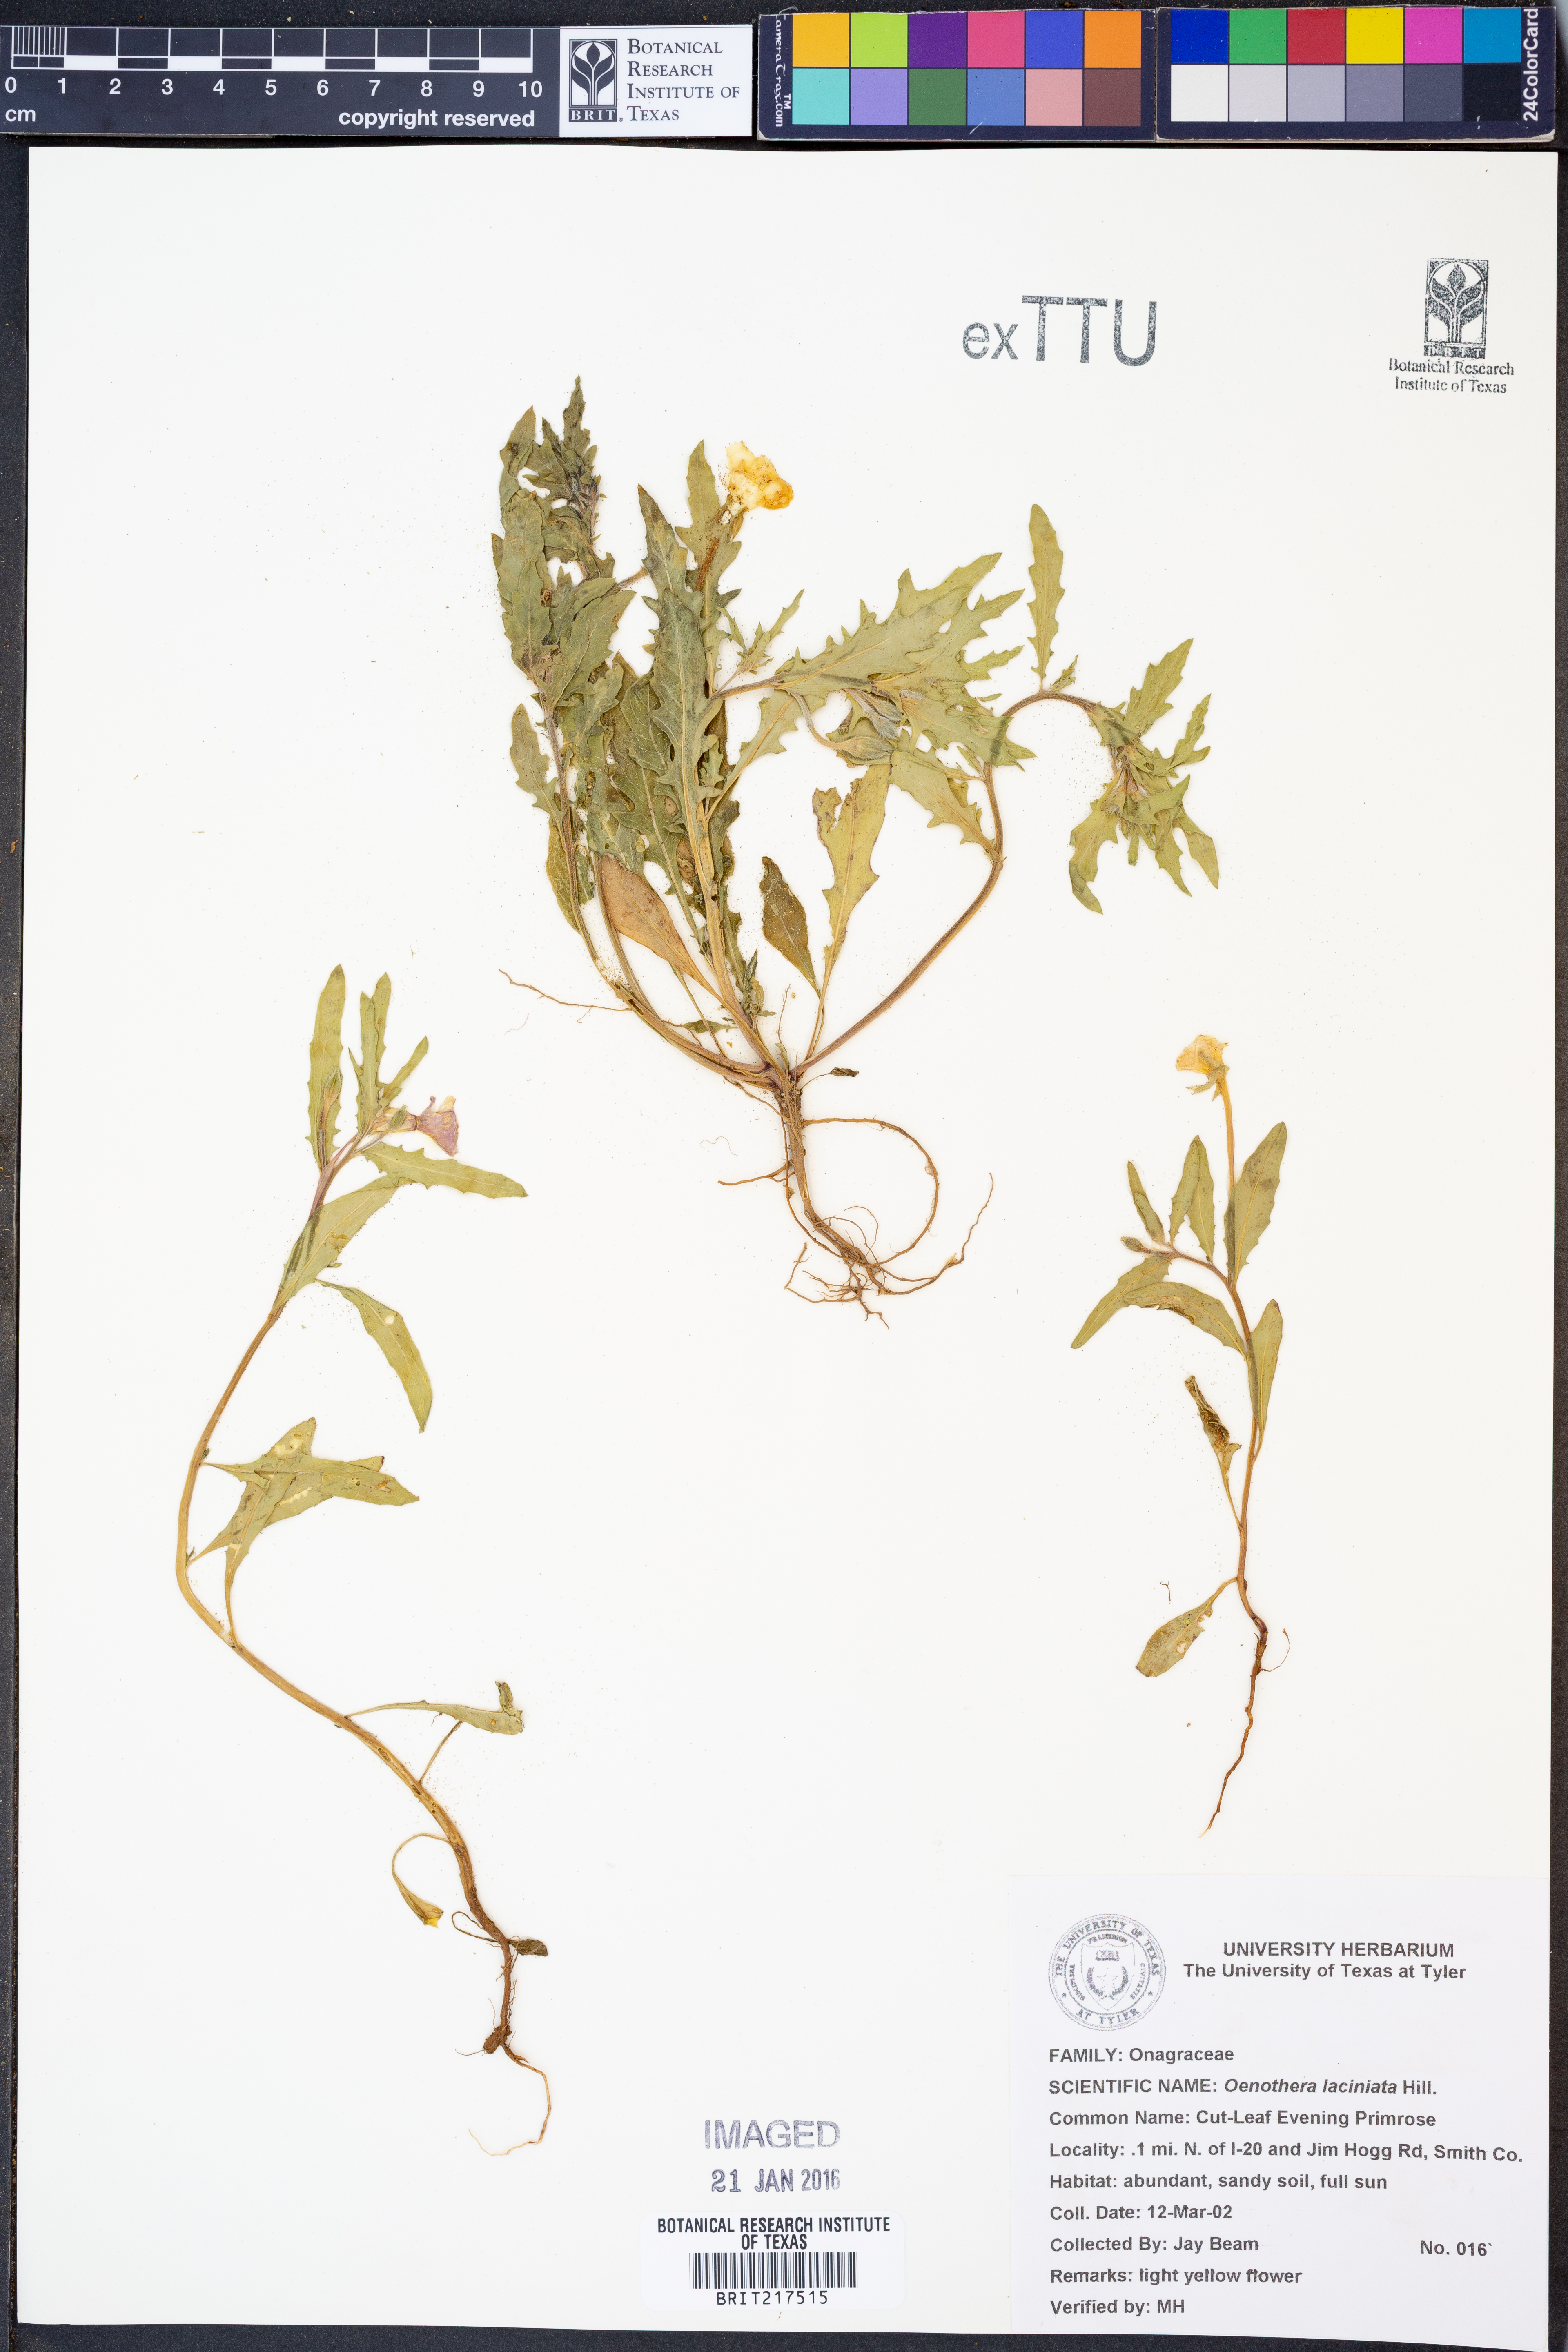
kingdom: Plantae
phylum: Tracheophyta
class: Magnoliopsida
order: Myrtales
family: Onagraceae
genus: Oenothera
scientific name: Oenothera laciniata
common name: Cut-leaved evening-primrose
